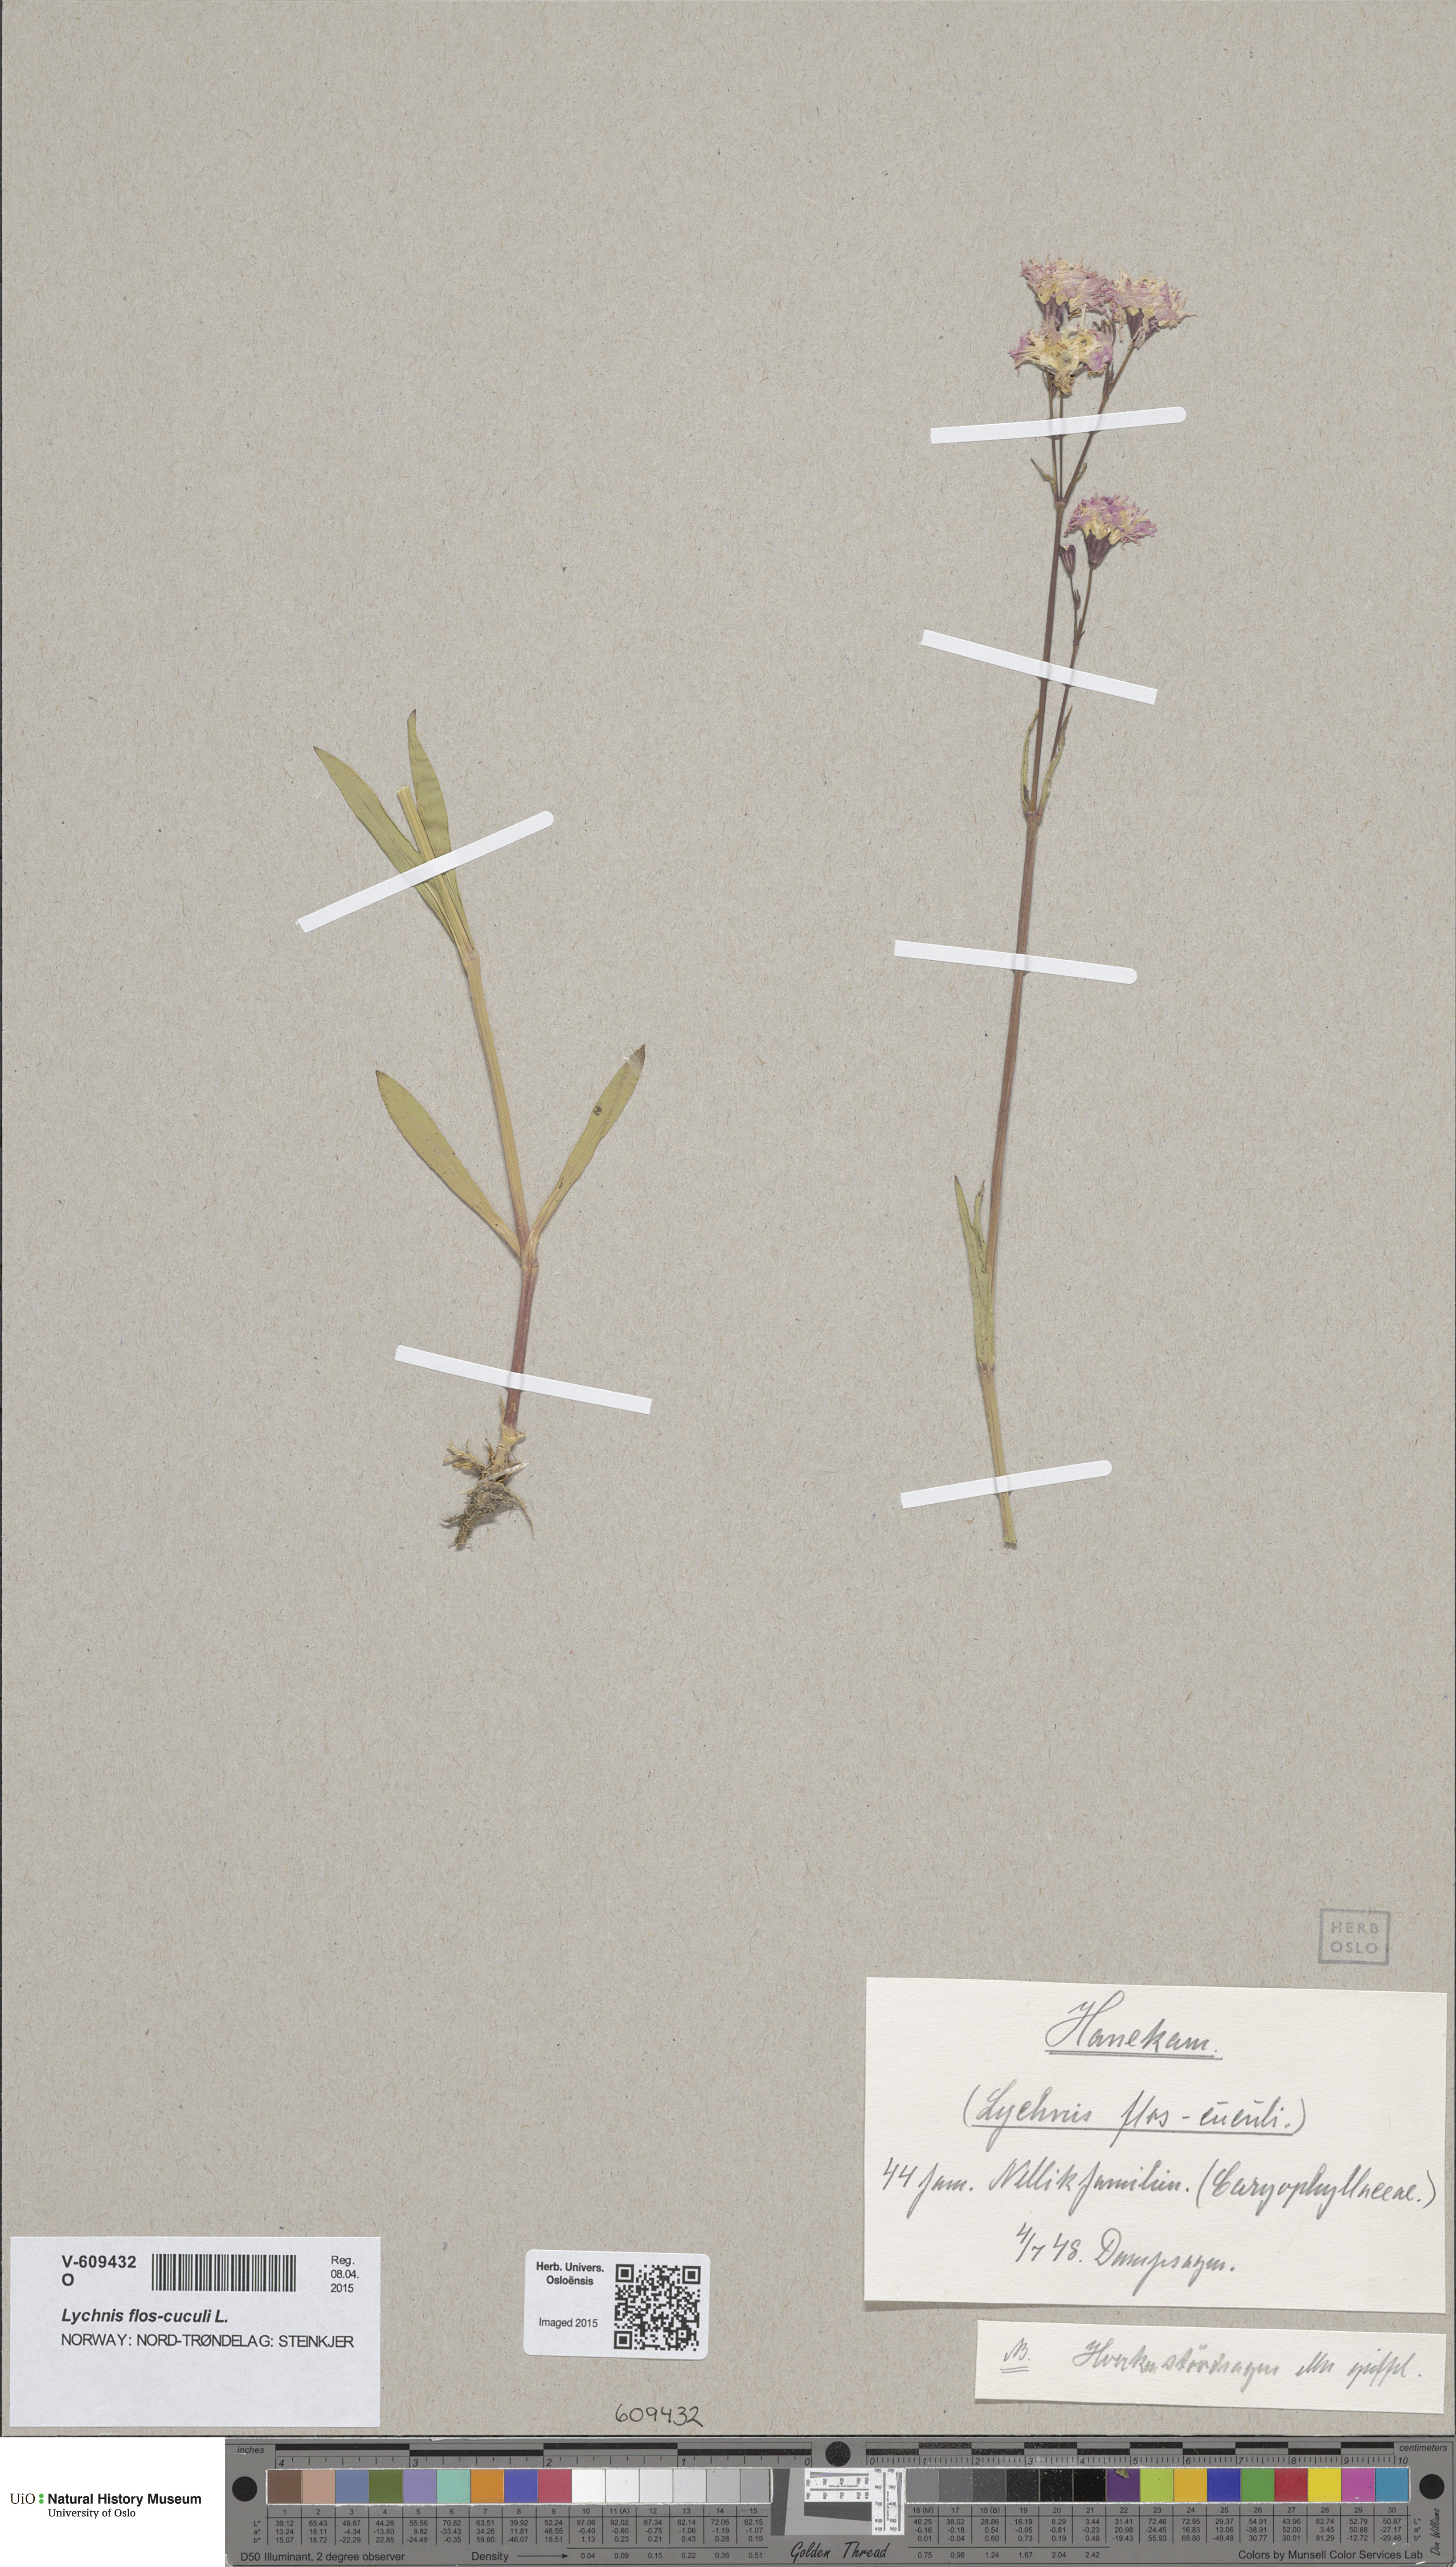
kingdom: Plantae
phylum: Tracheophyta
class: Magnoliopsida
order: Caryophyllales
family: Caryophyllaceae
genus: Silene
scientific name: Silene flos-cuculi
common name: Ragged-robin
